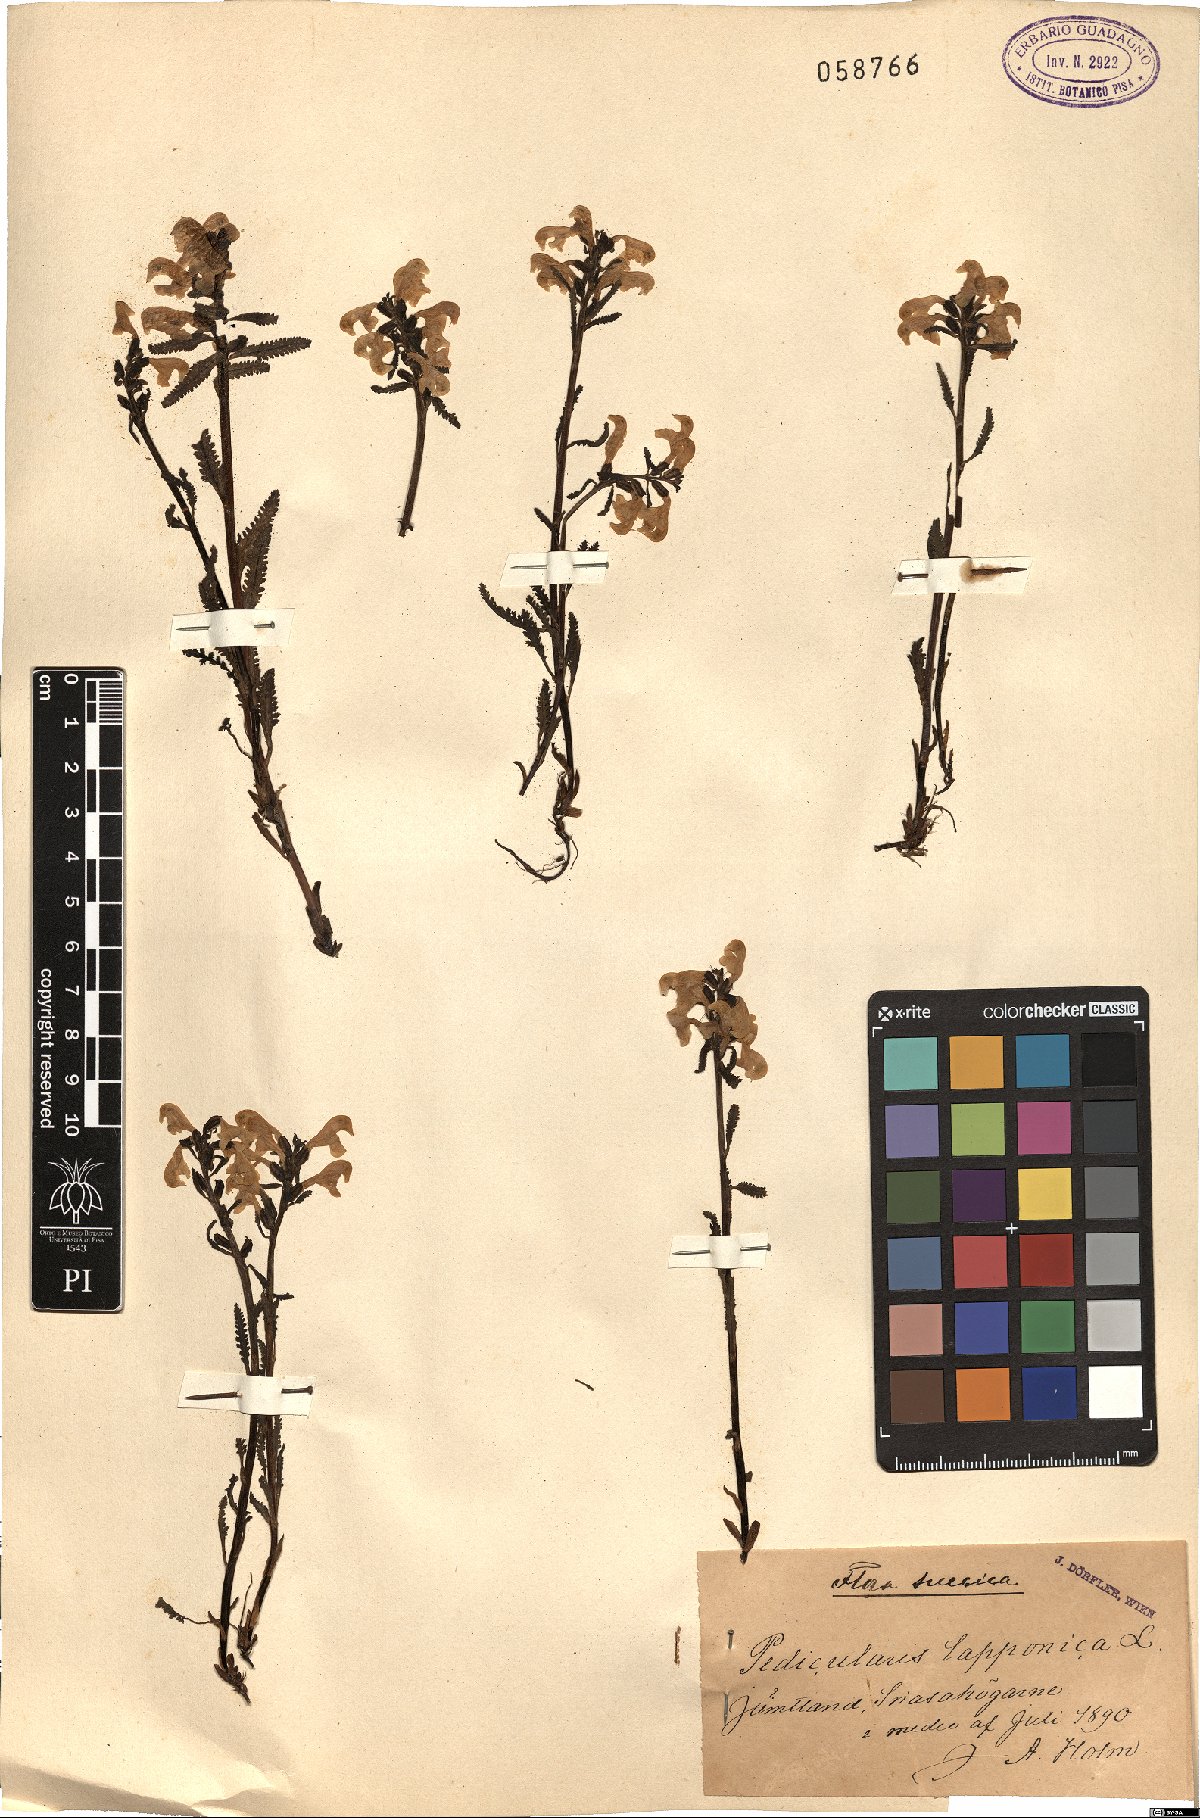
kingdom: Plantae
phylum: Tracheophyta
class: Magnoliopsida
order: Lamiales
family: Orobanchaceae
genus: Pedicularis
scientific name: Pedicularis lapponica
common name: Lapland lousewort
